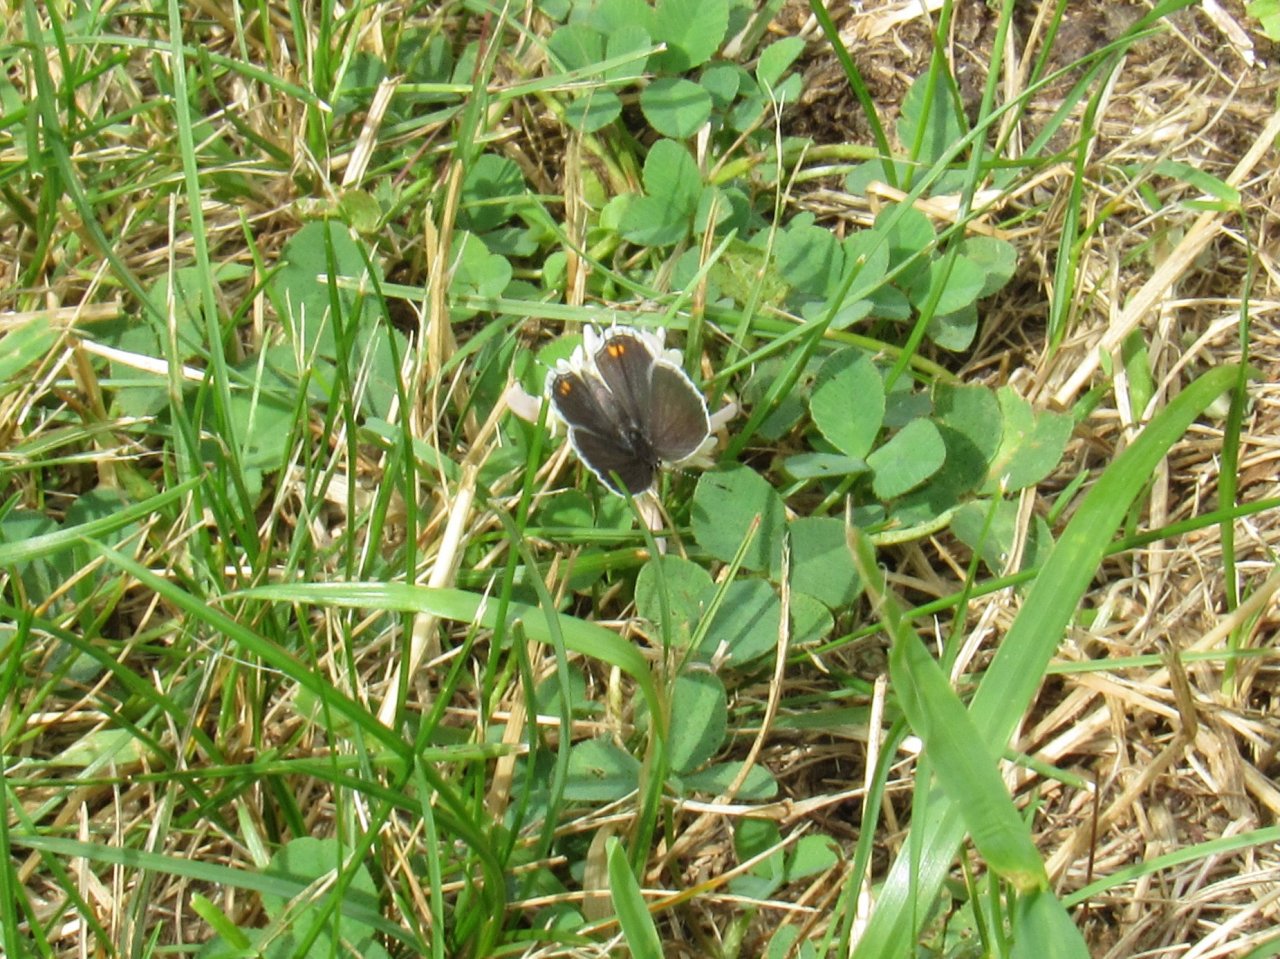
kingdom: Animalia
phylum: Arthropoda
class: Insecta
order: Lepidoptera
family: Lycaenidae
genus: Elkalyce
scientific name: Elkalyce comyntas
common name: Eastern Tailed-Blue
